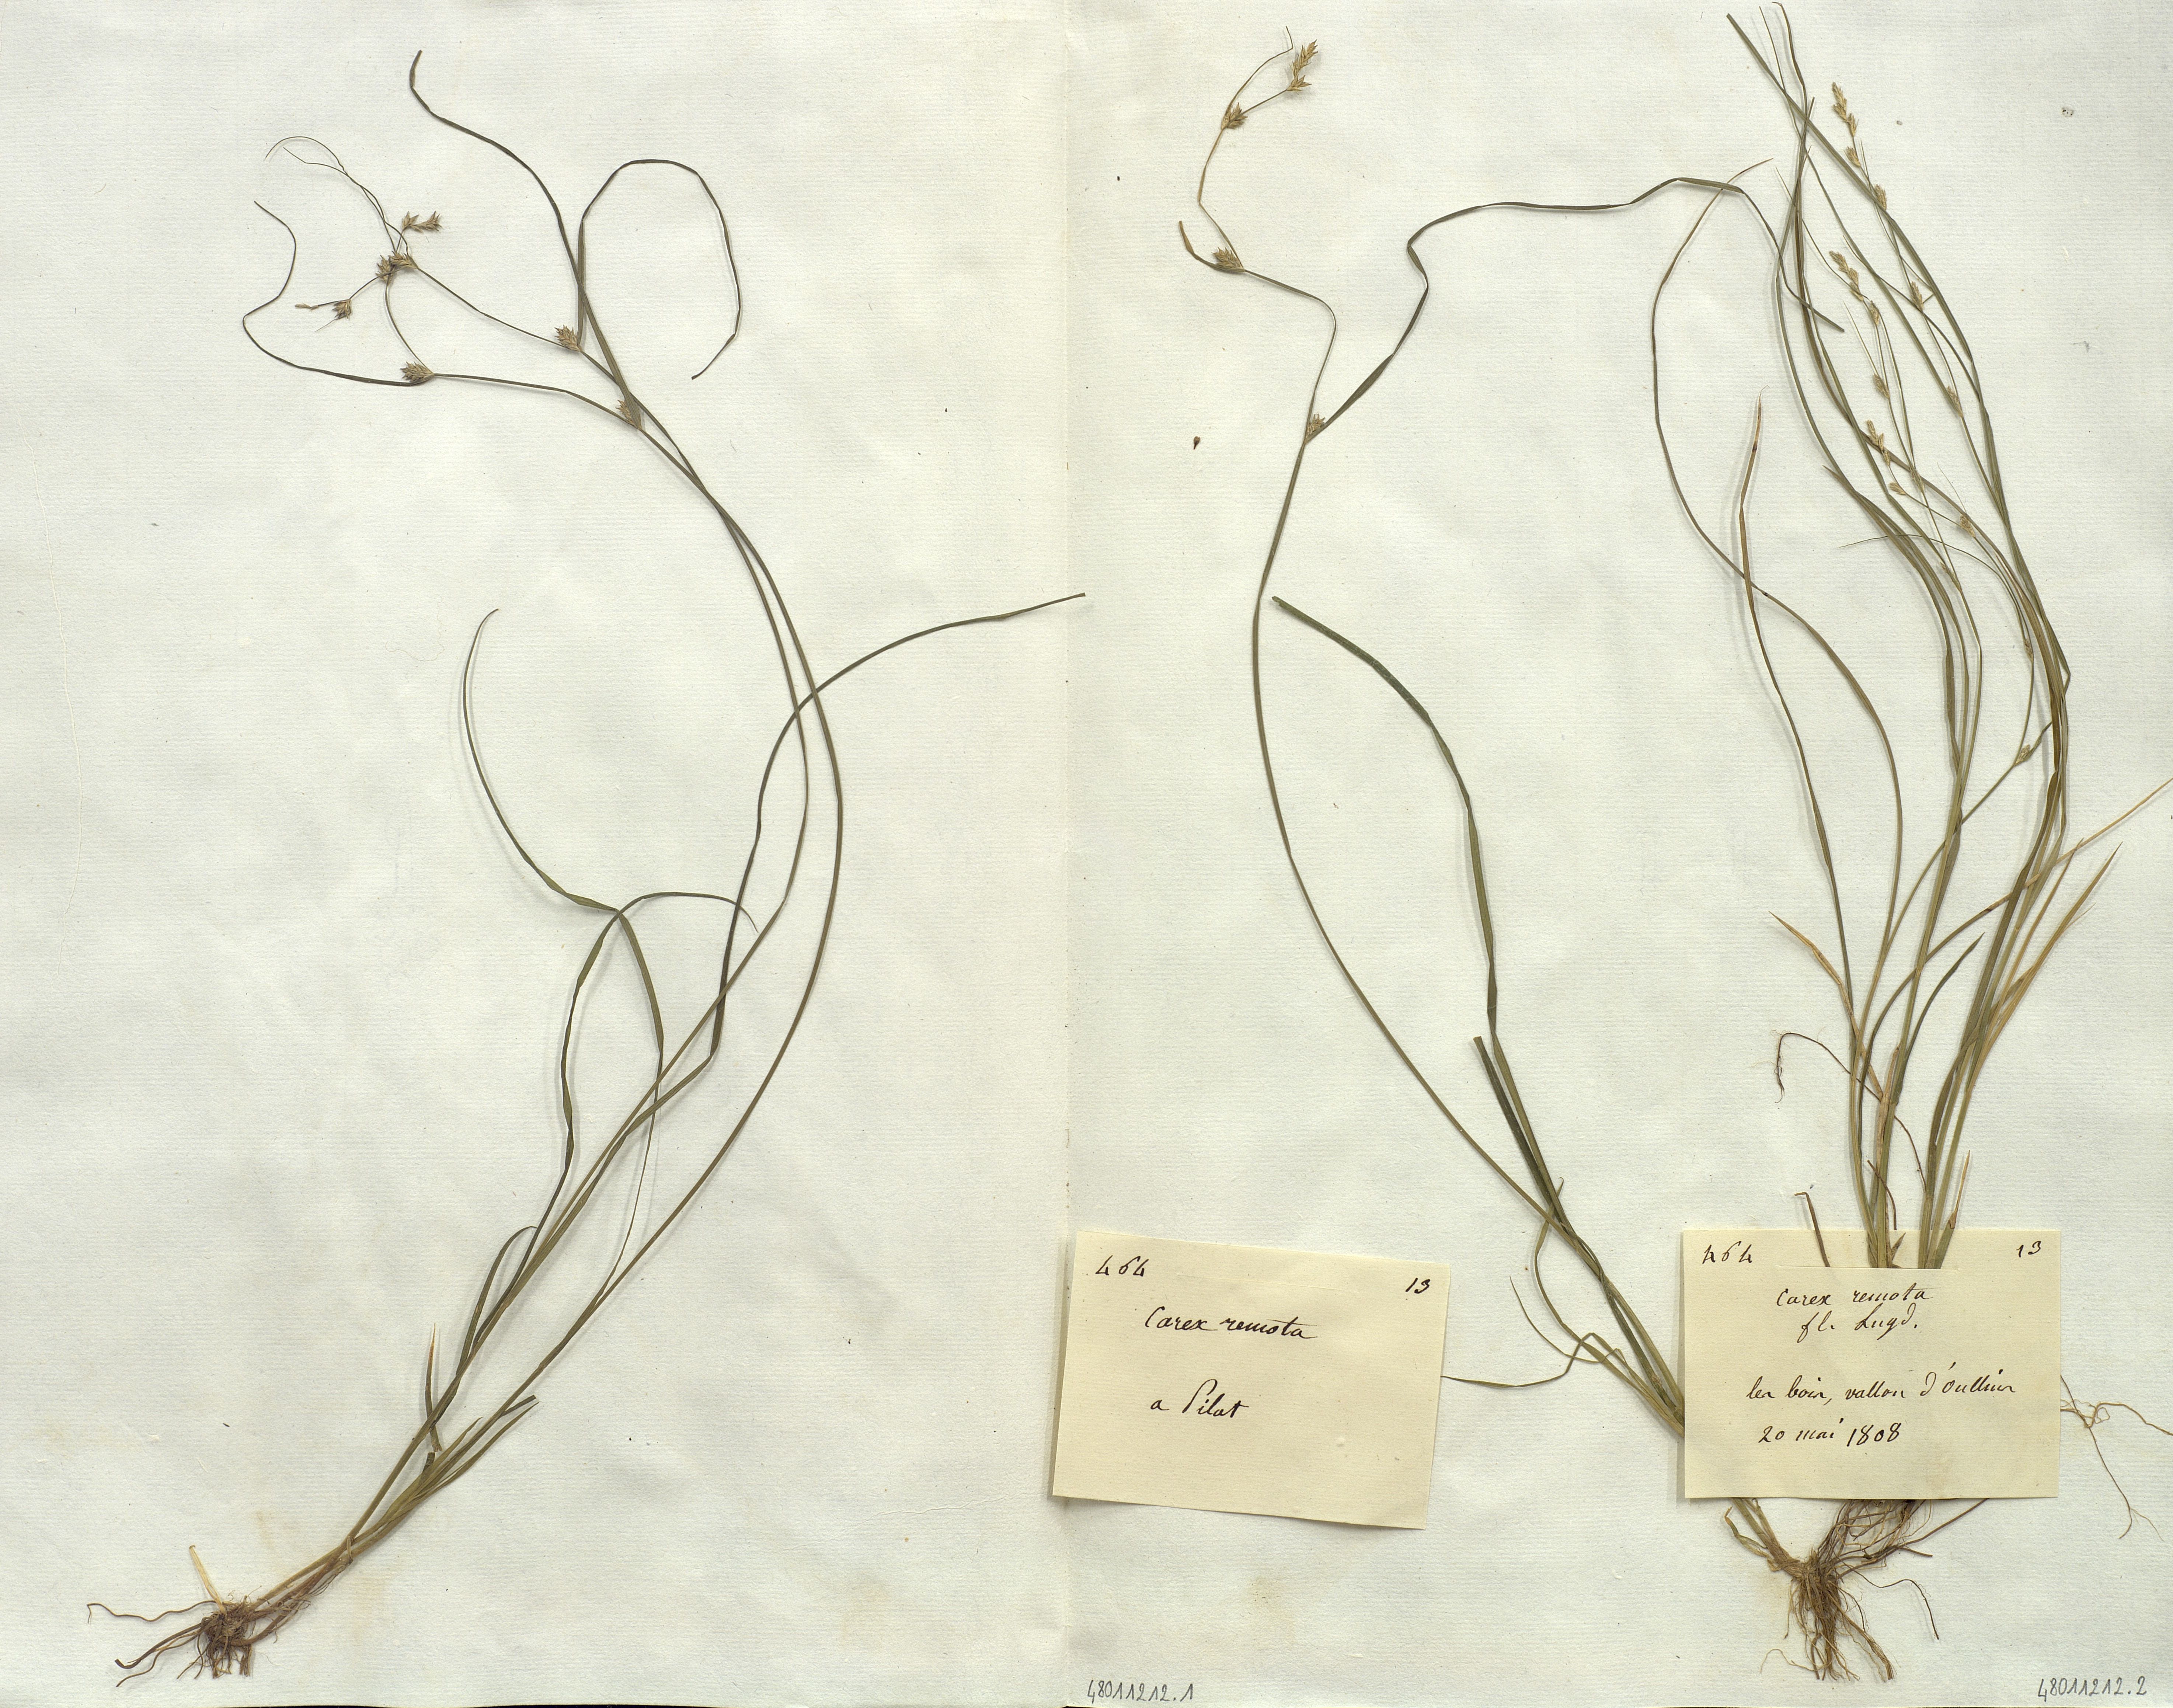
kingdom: Plantae
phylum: Tracheophyta
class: Liliopsida
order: Poales
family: Cyperaceae
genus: Carex
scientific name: Carex remota
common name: Remote sedge
